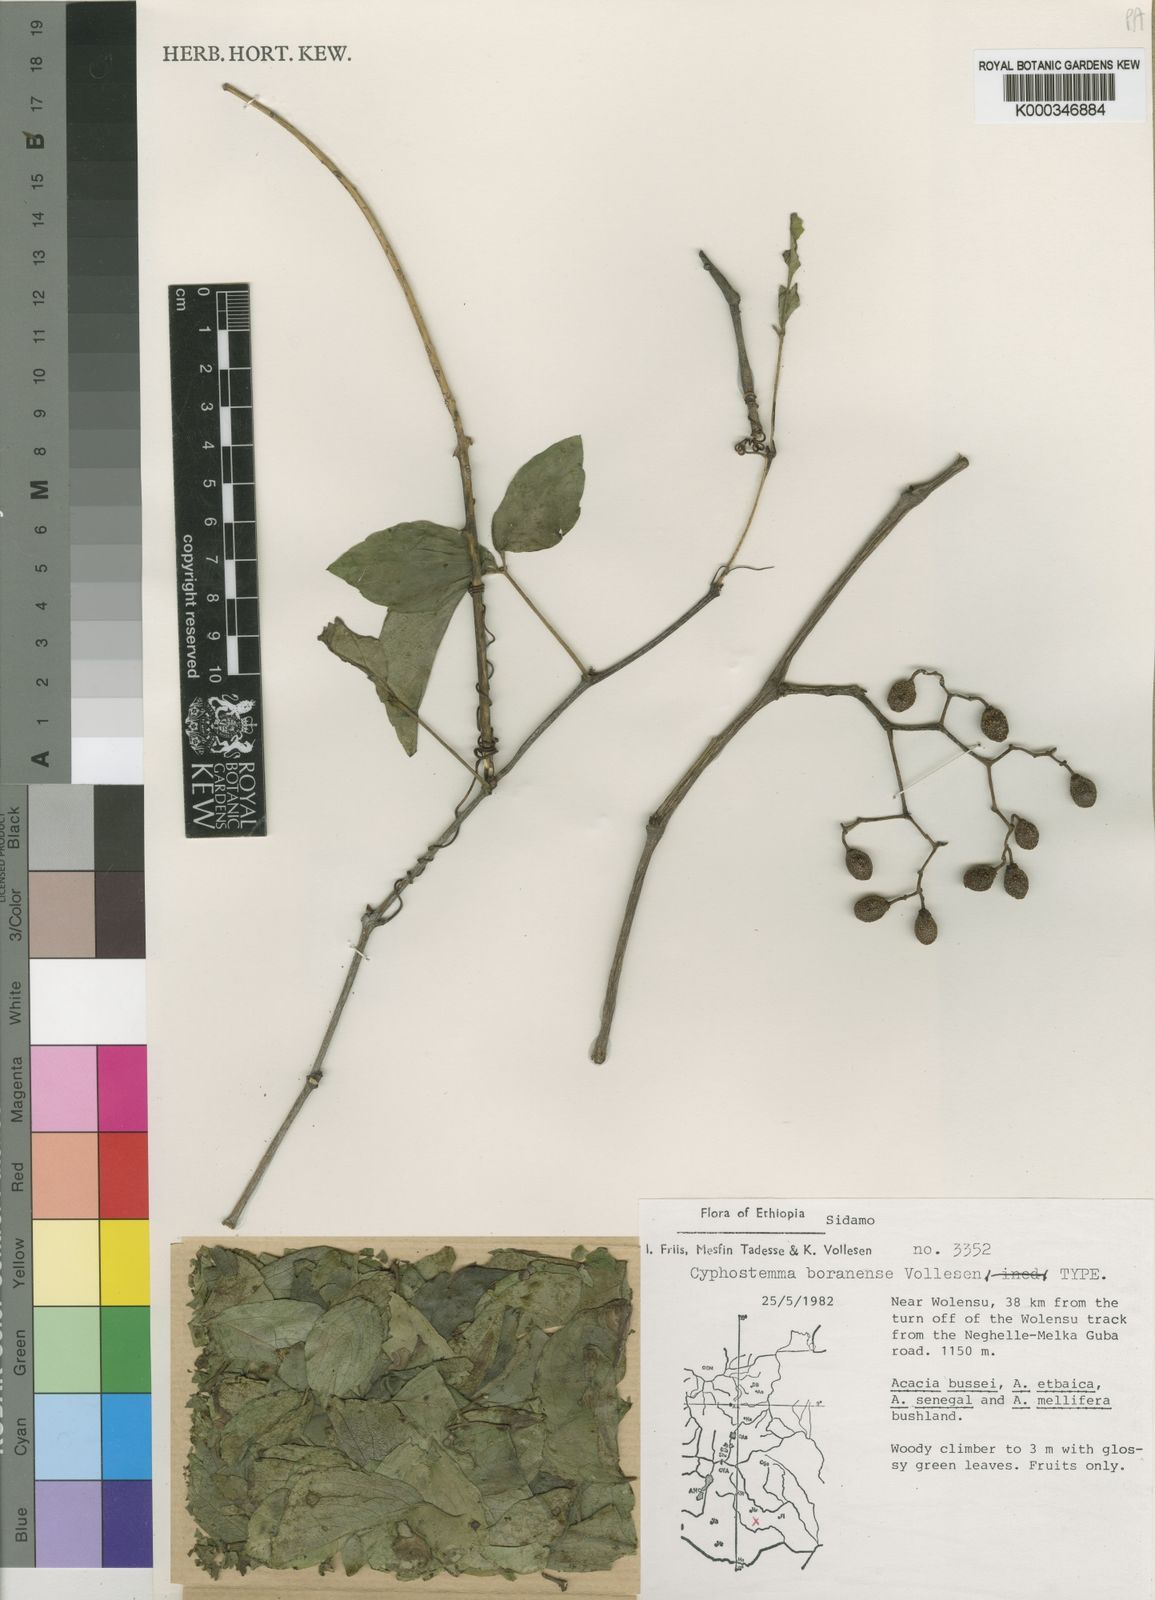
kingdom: Plantae
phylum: Tracheophyta
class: Magnoliopsida
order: Vitales
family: Vitaceae
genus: Cyphostemma
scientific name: Cyphostemma boranense
